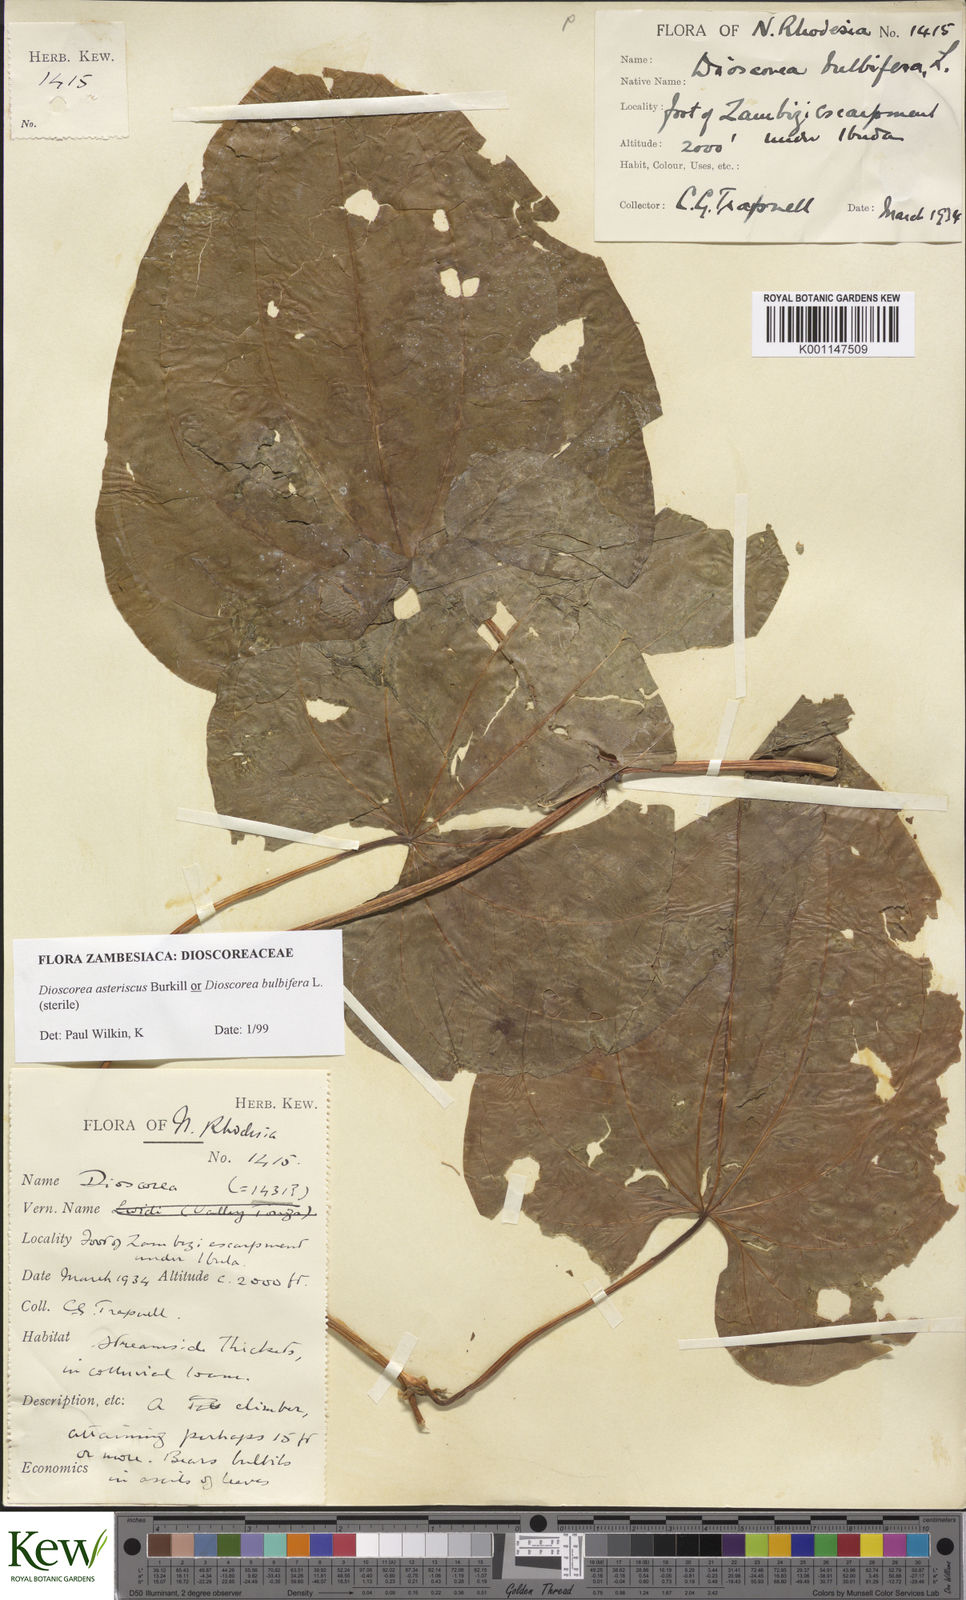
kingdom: Plantae
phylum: Tracheophyta
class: Liliopsida
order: Dioscoreales
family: Dioscoreaceae
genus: Dioscorea
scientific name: Dioscorea bulbifera
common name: Air yam
